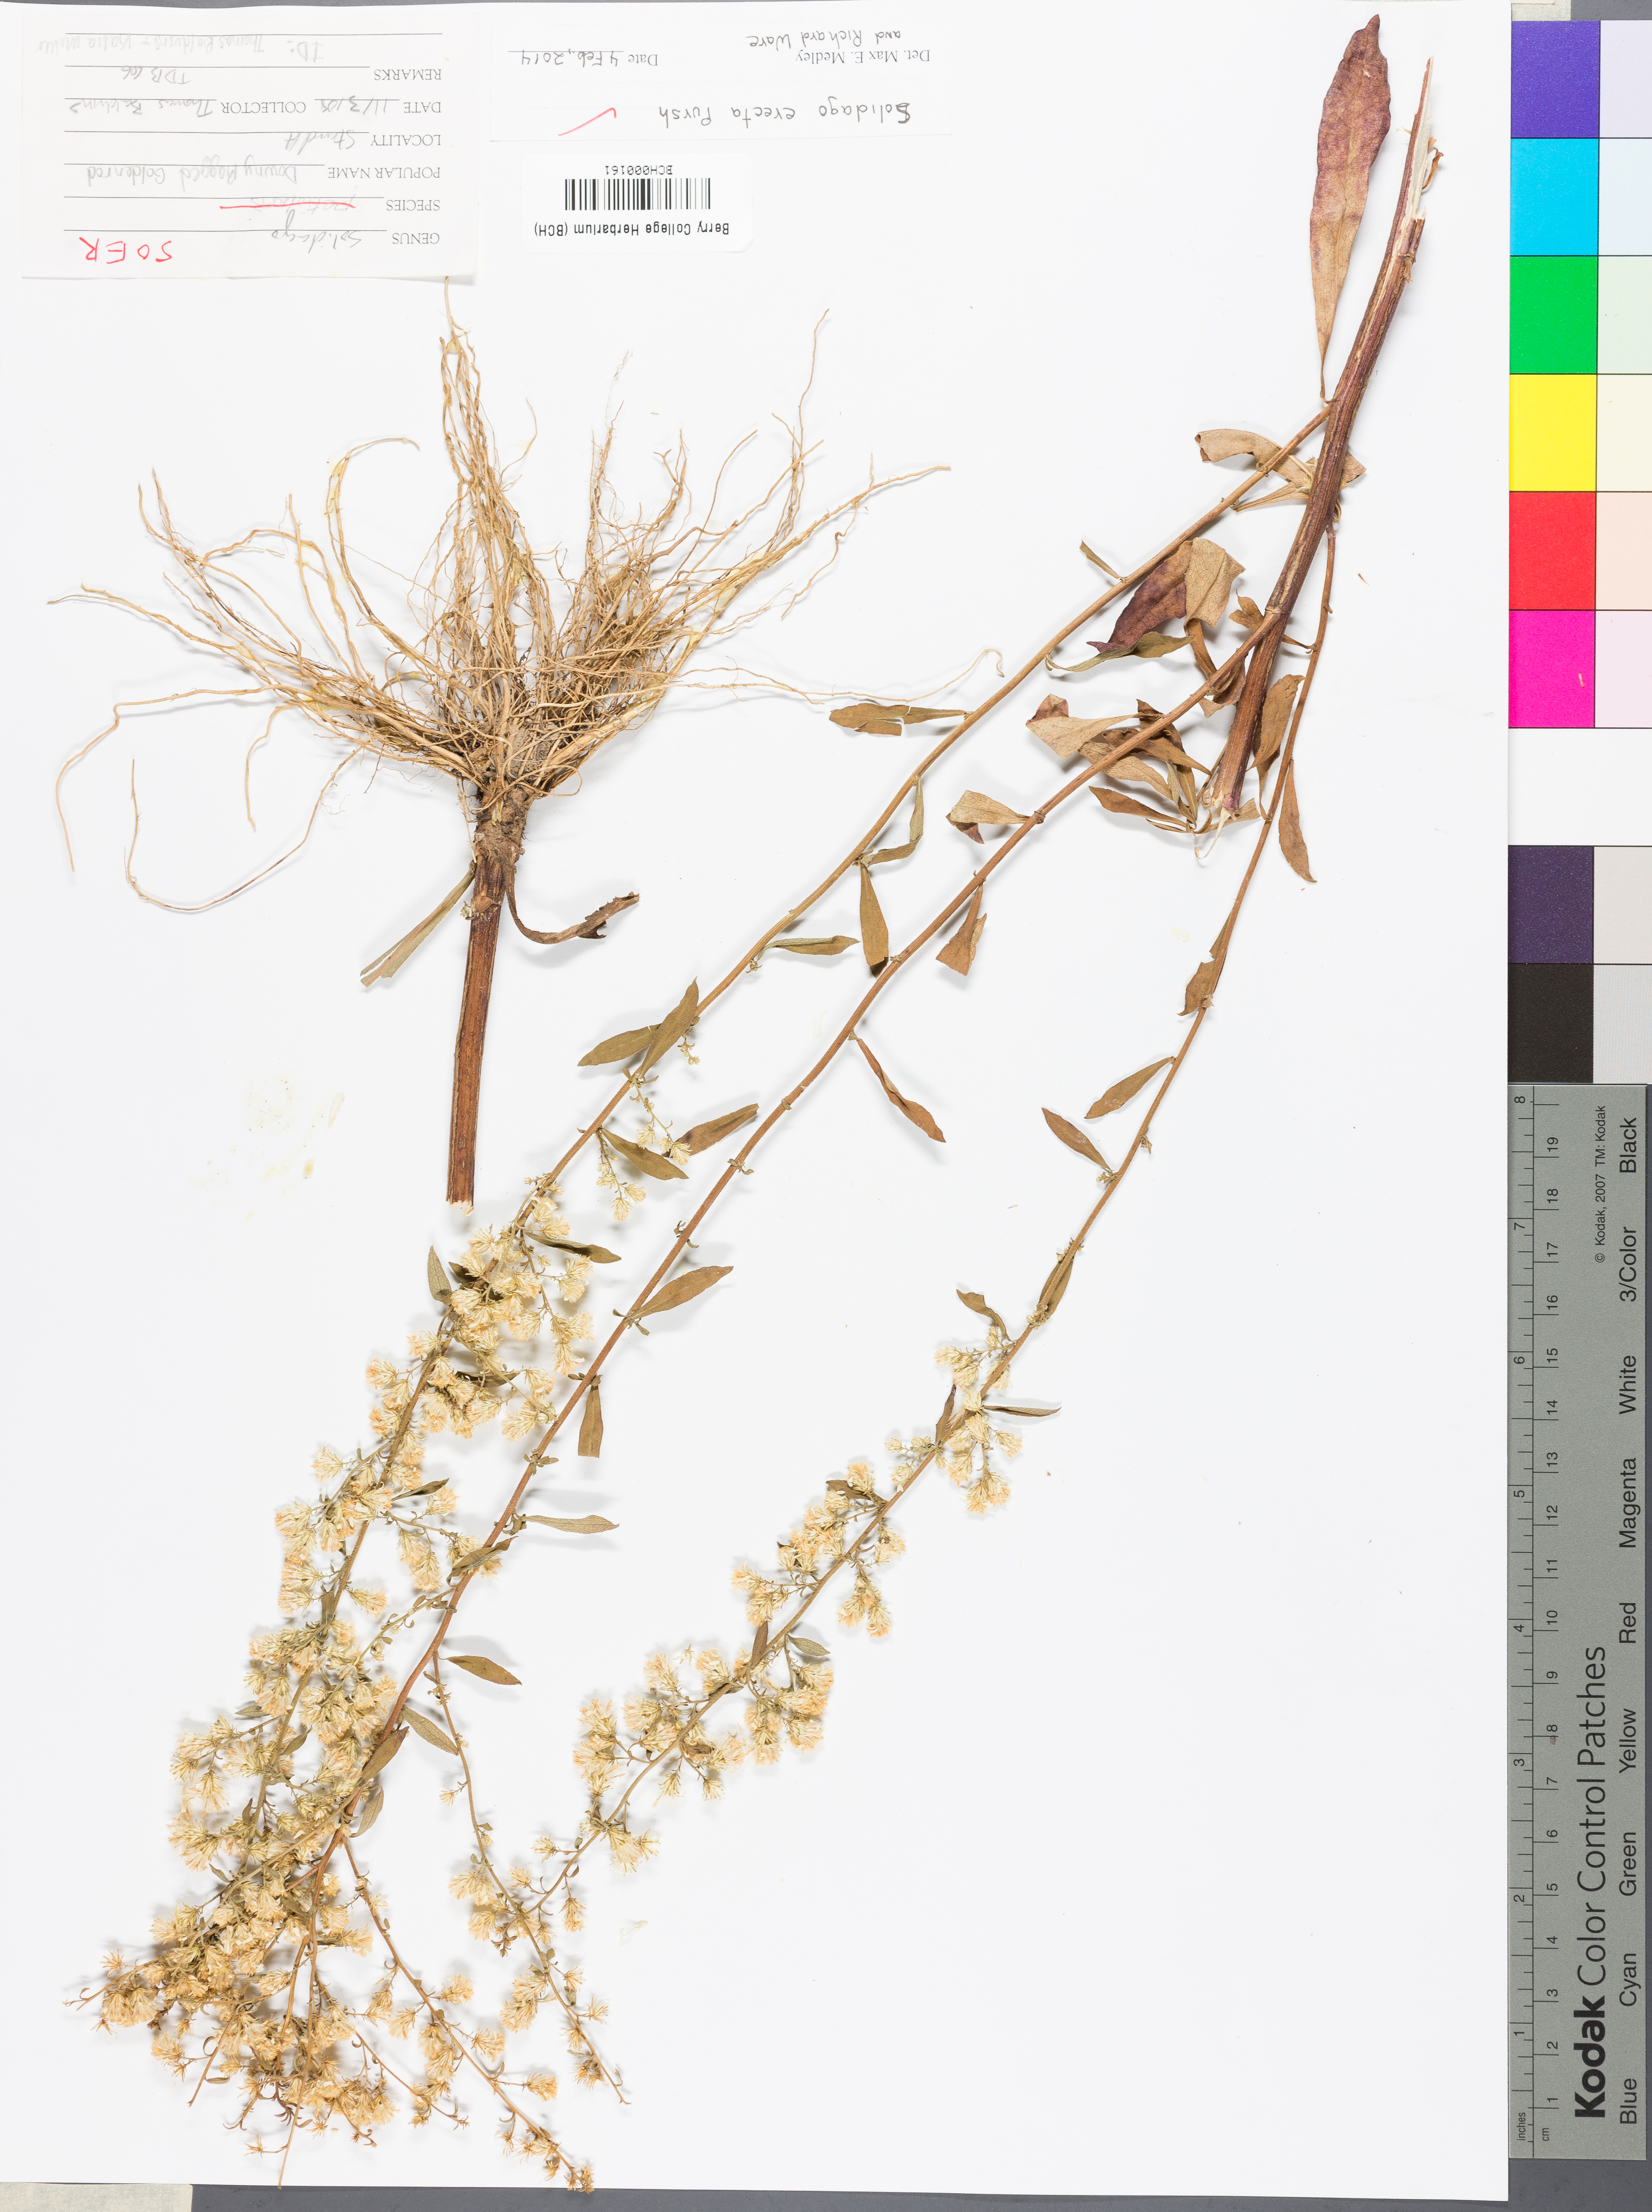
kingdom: Plantae
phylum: Tracheophyta
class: Magnoliopsida
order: Asterales
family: Asteraceae
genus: Solidago
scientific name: Solidago erecta
